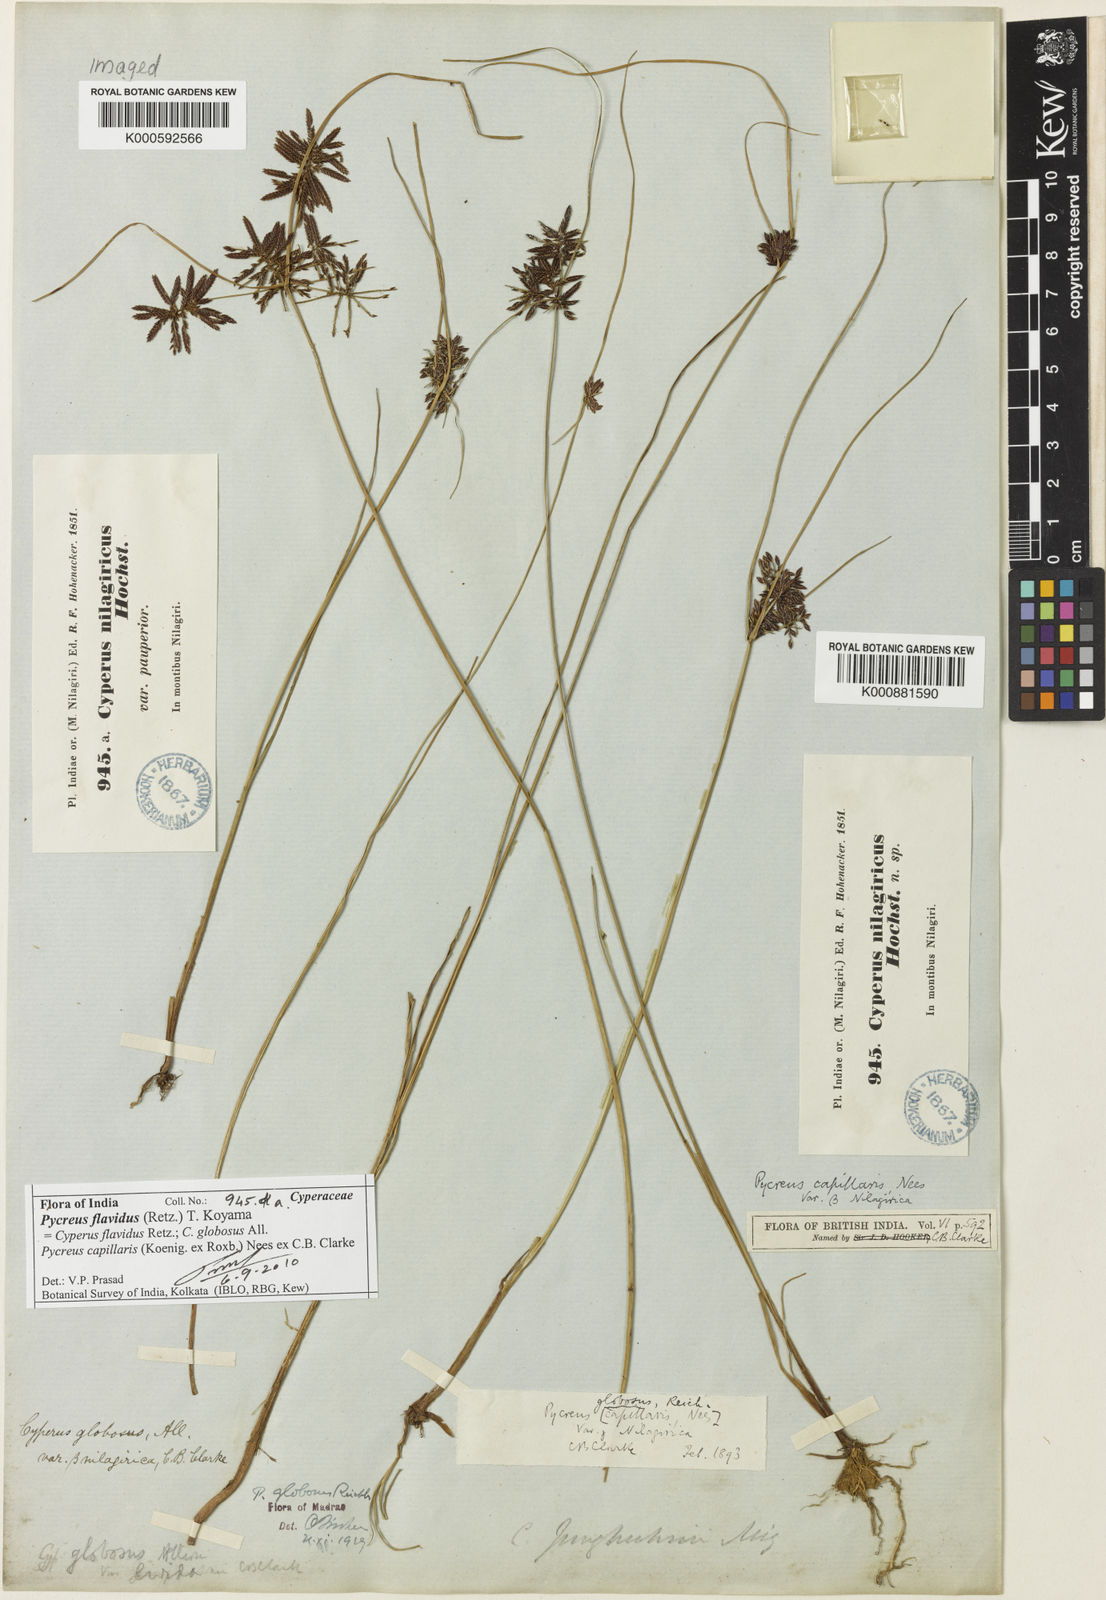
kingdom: Plantae
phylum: Tracheophyta
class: Liliopsida
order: Poales
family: Cyperaceae
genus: Cyperus
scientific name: Cyperus flavidus
